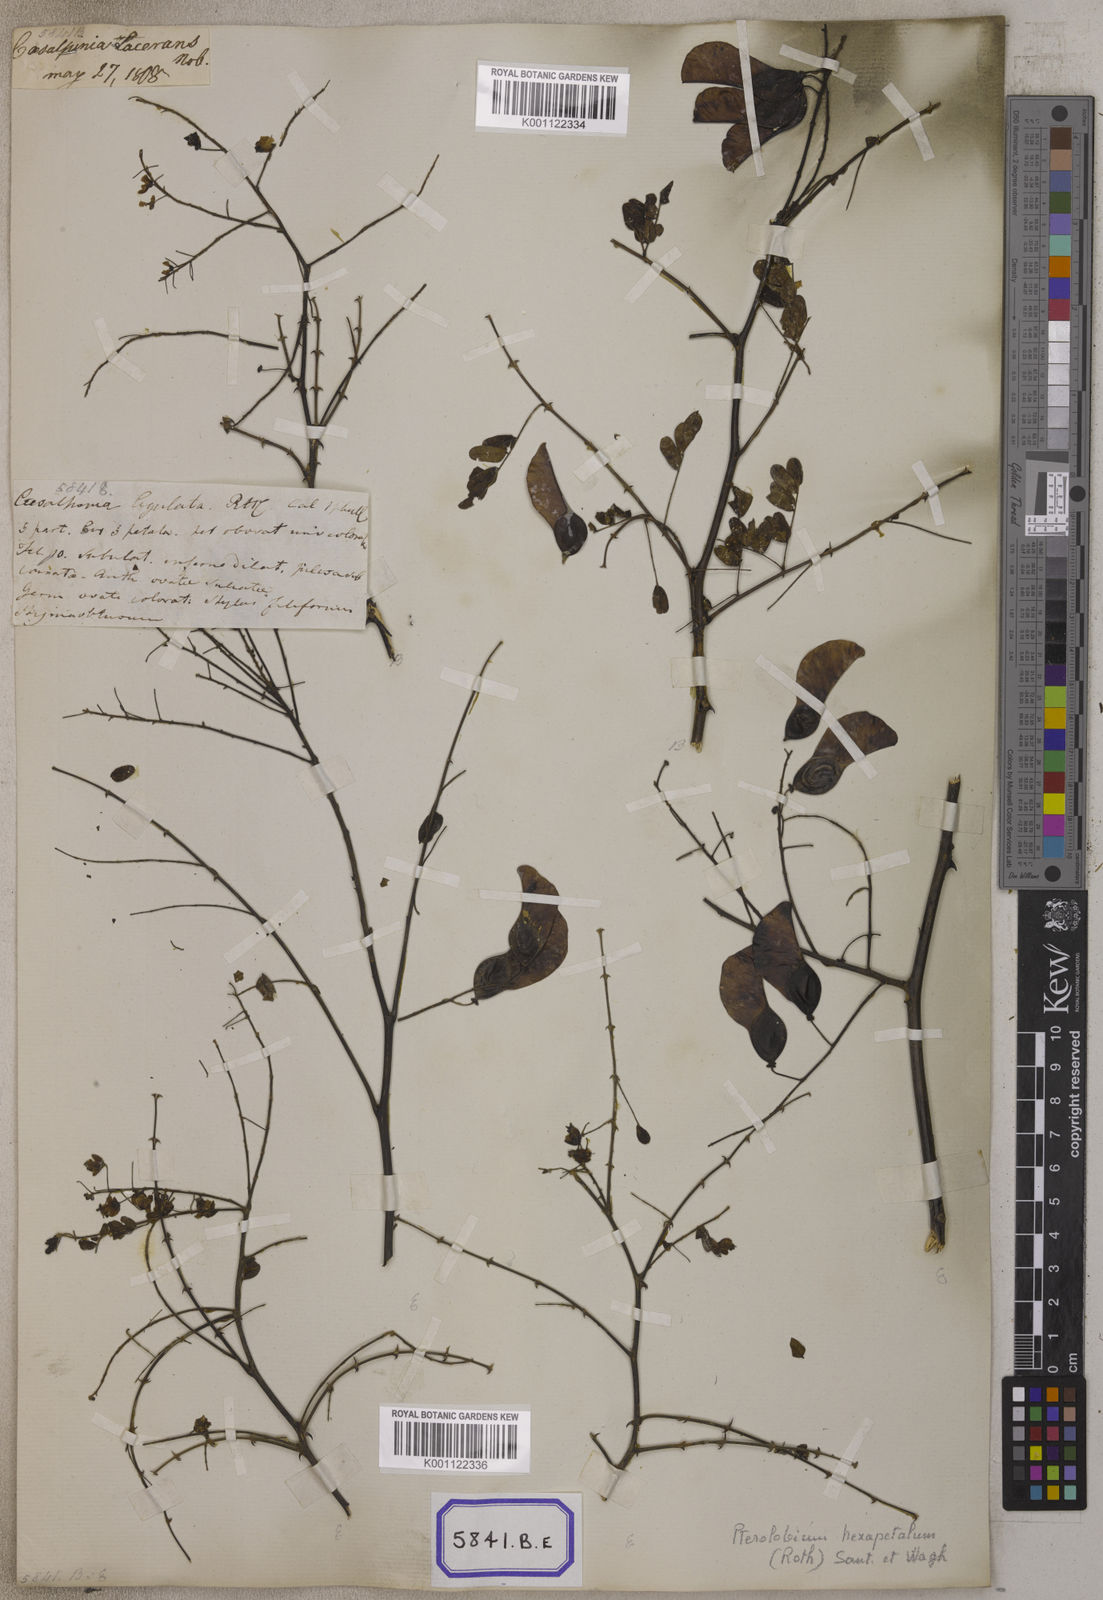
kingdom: Plantae
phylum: Tracheophyta
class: Magnoliopsida
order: Fabales
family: Fabaceae
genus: Pterolobium
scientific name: Pterolobium hexapetalum
